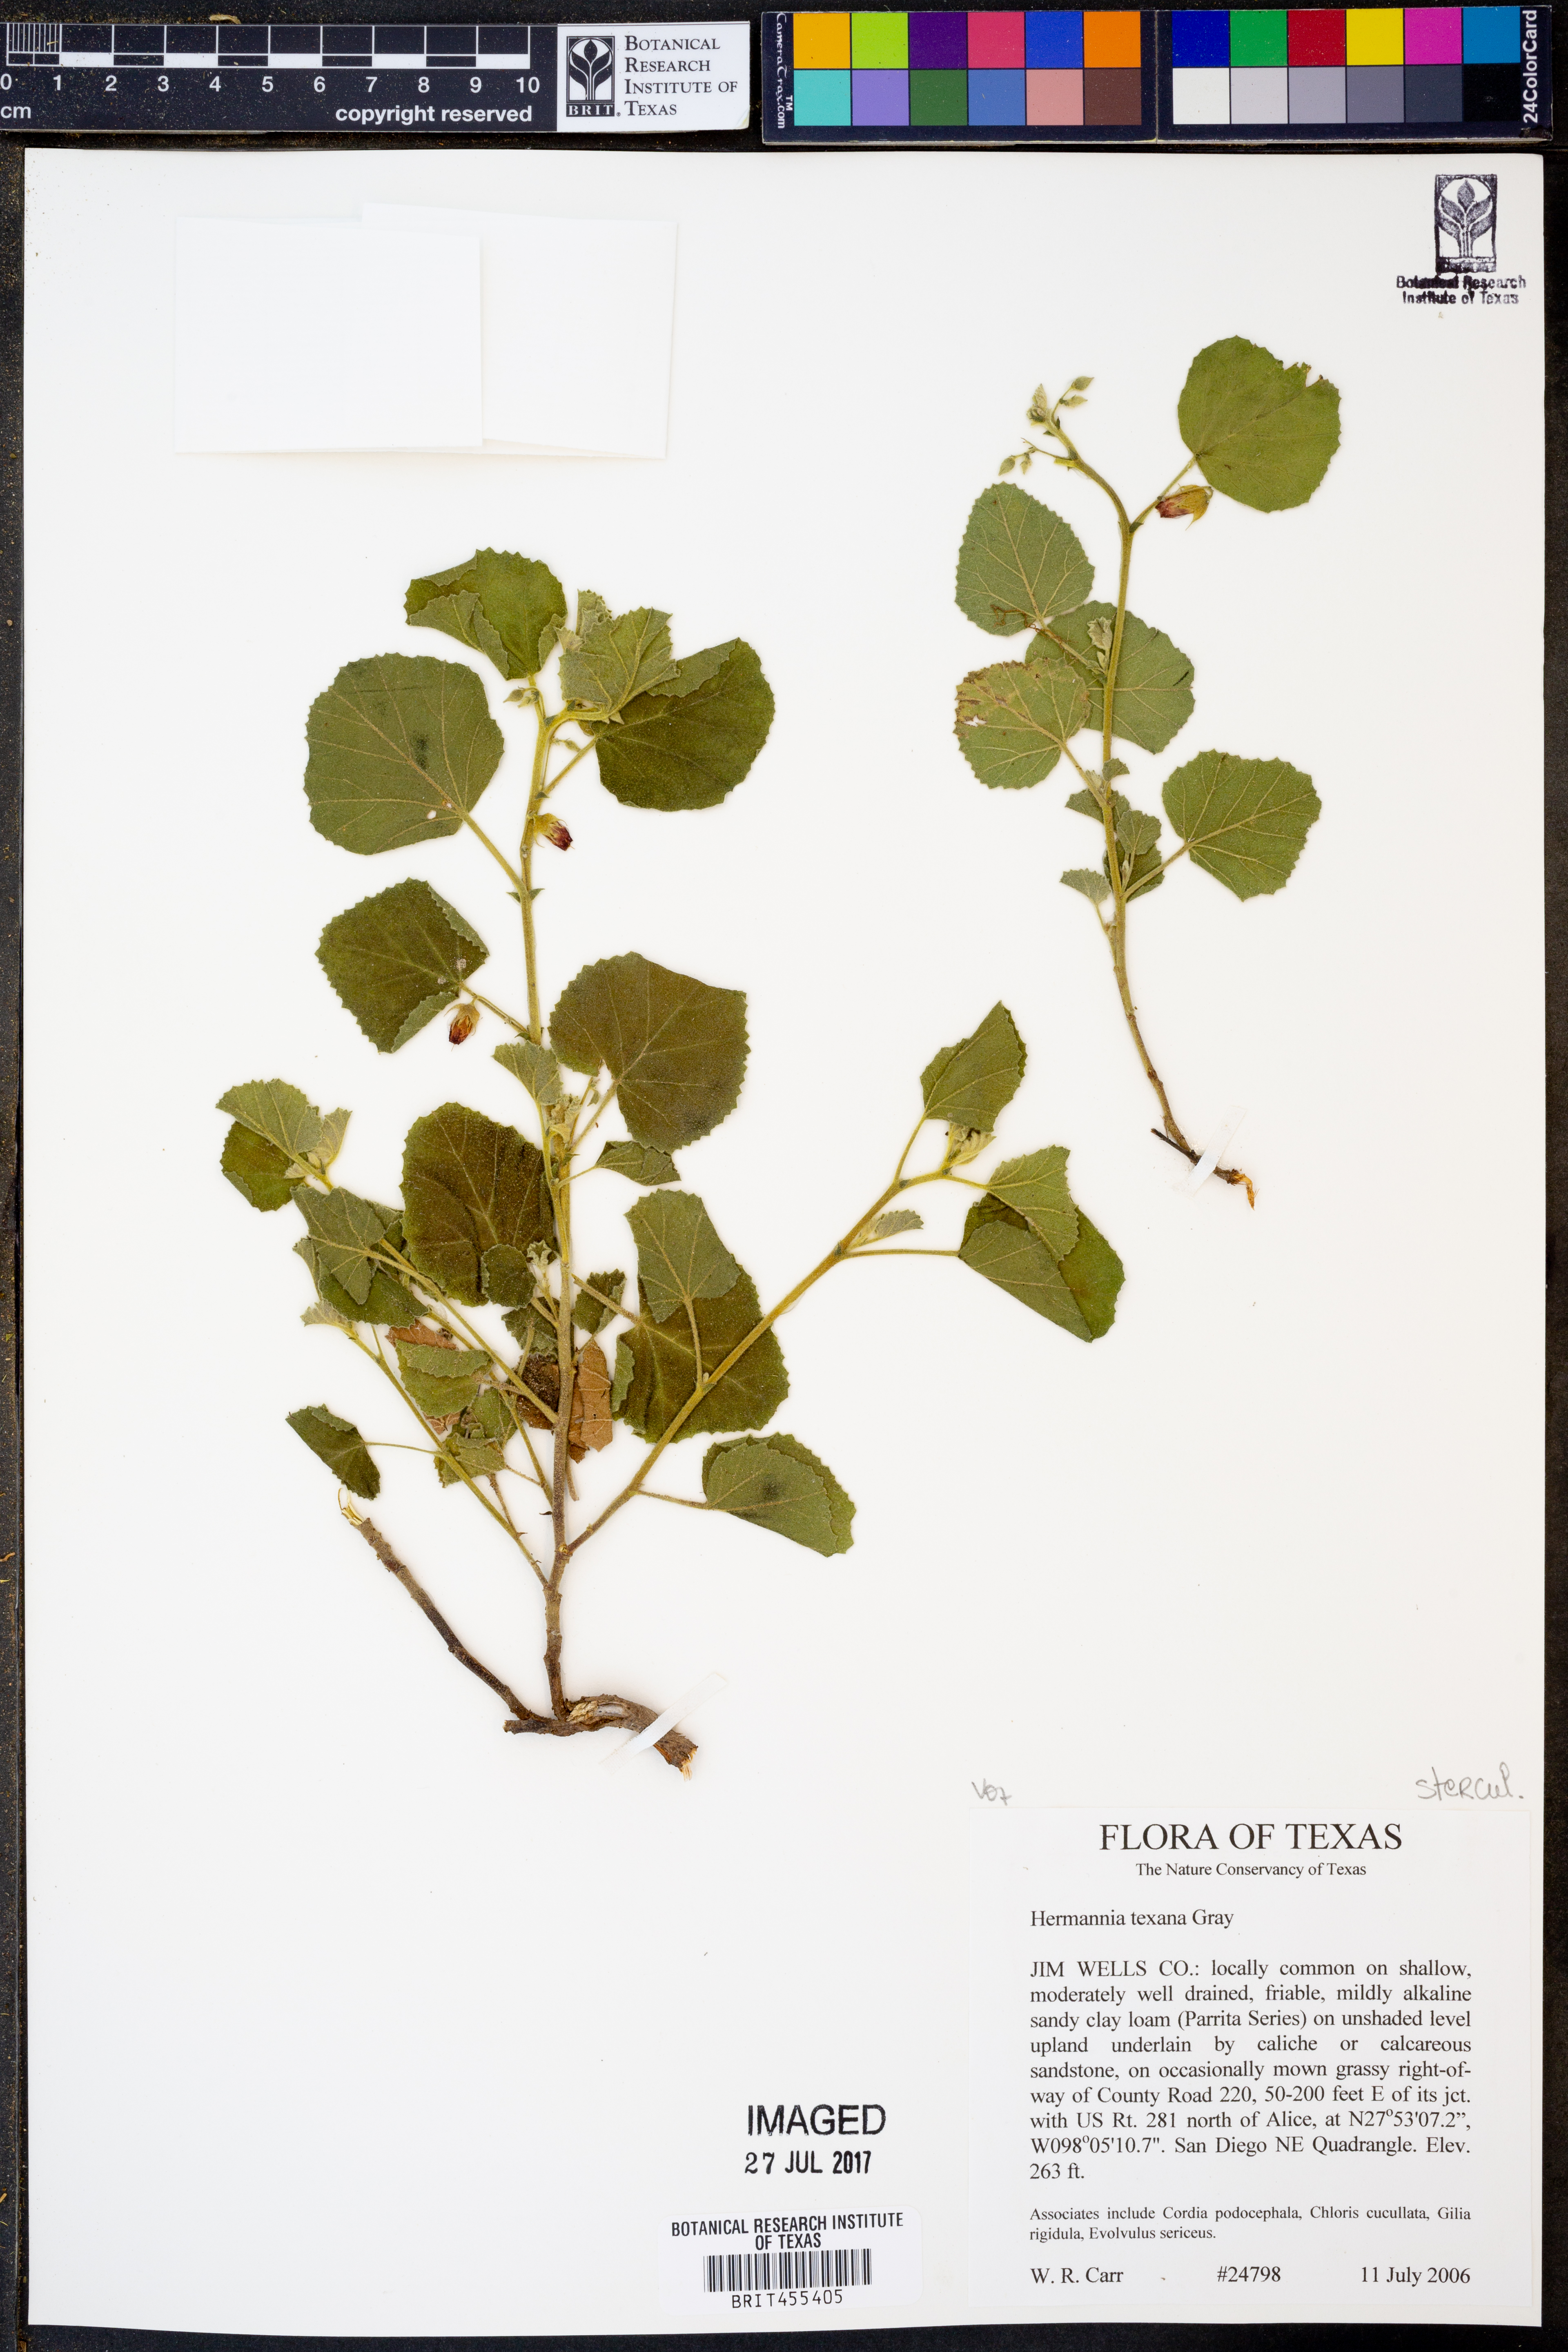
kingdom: Plantae
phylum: Tracheophyta
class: Magnoliopsida
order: Malvales
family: Malvaceae
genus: Hermannia
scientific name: Hermannia texana
